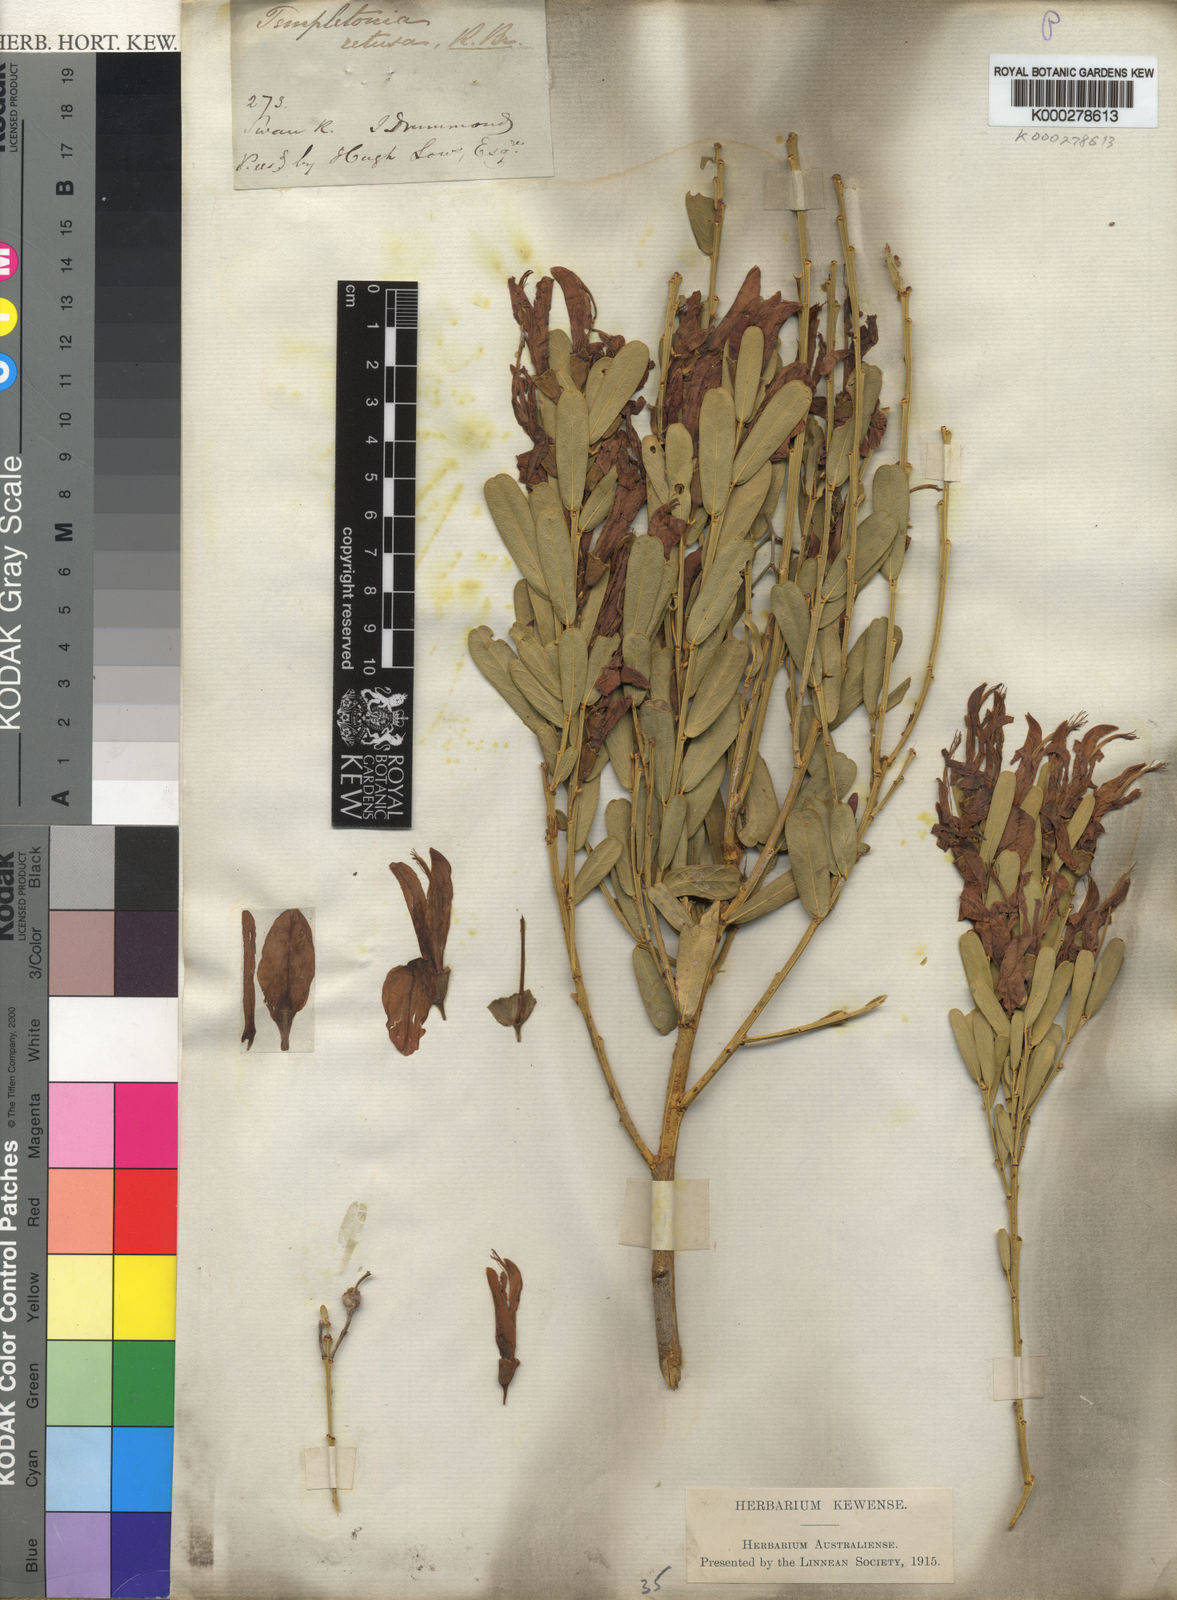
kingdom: Plantae
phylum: Tracheophyta
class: Magnoliopsida
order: Fabales
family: Fabaceae
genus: Templetonia
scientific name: Templetonia retusa
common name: Cockies'-tongue
